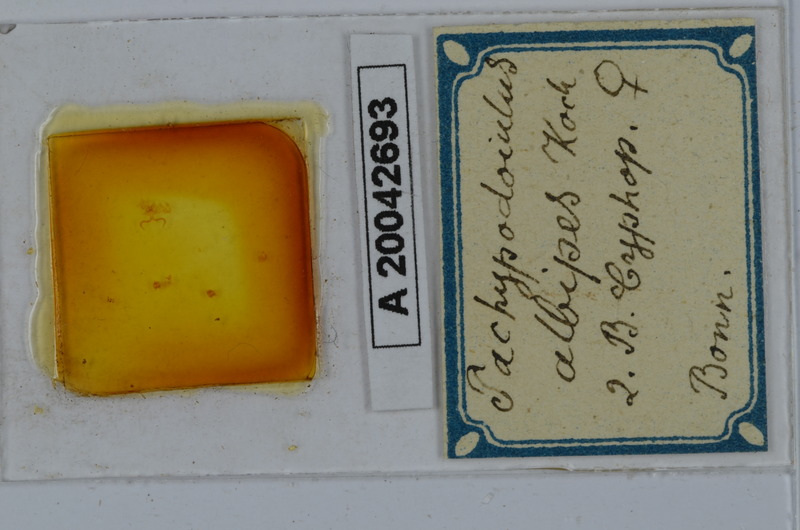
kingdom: Animalia
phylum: Arthropoda
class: Diplopoda
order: Julida
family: Julidae
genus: Tachypodoiulus
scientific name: Tachypodoiulus niger
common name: White-legged snake millipede
